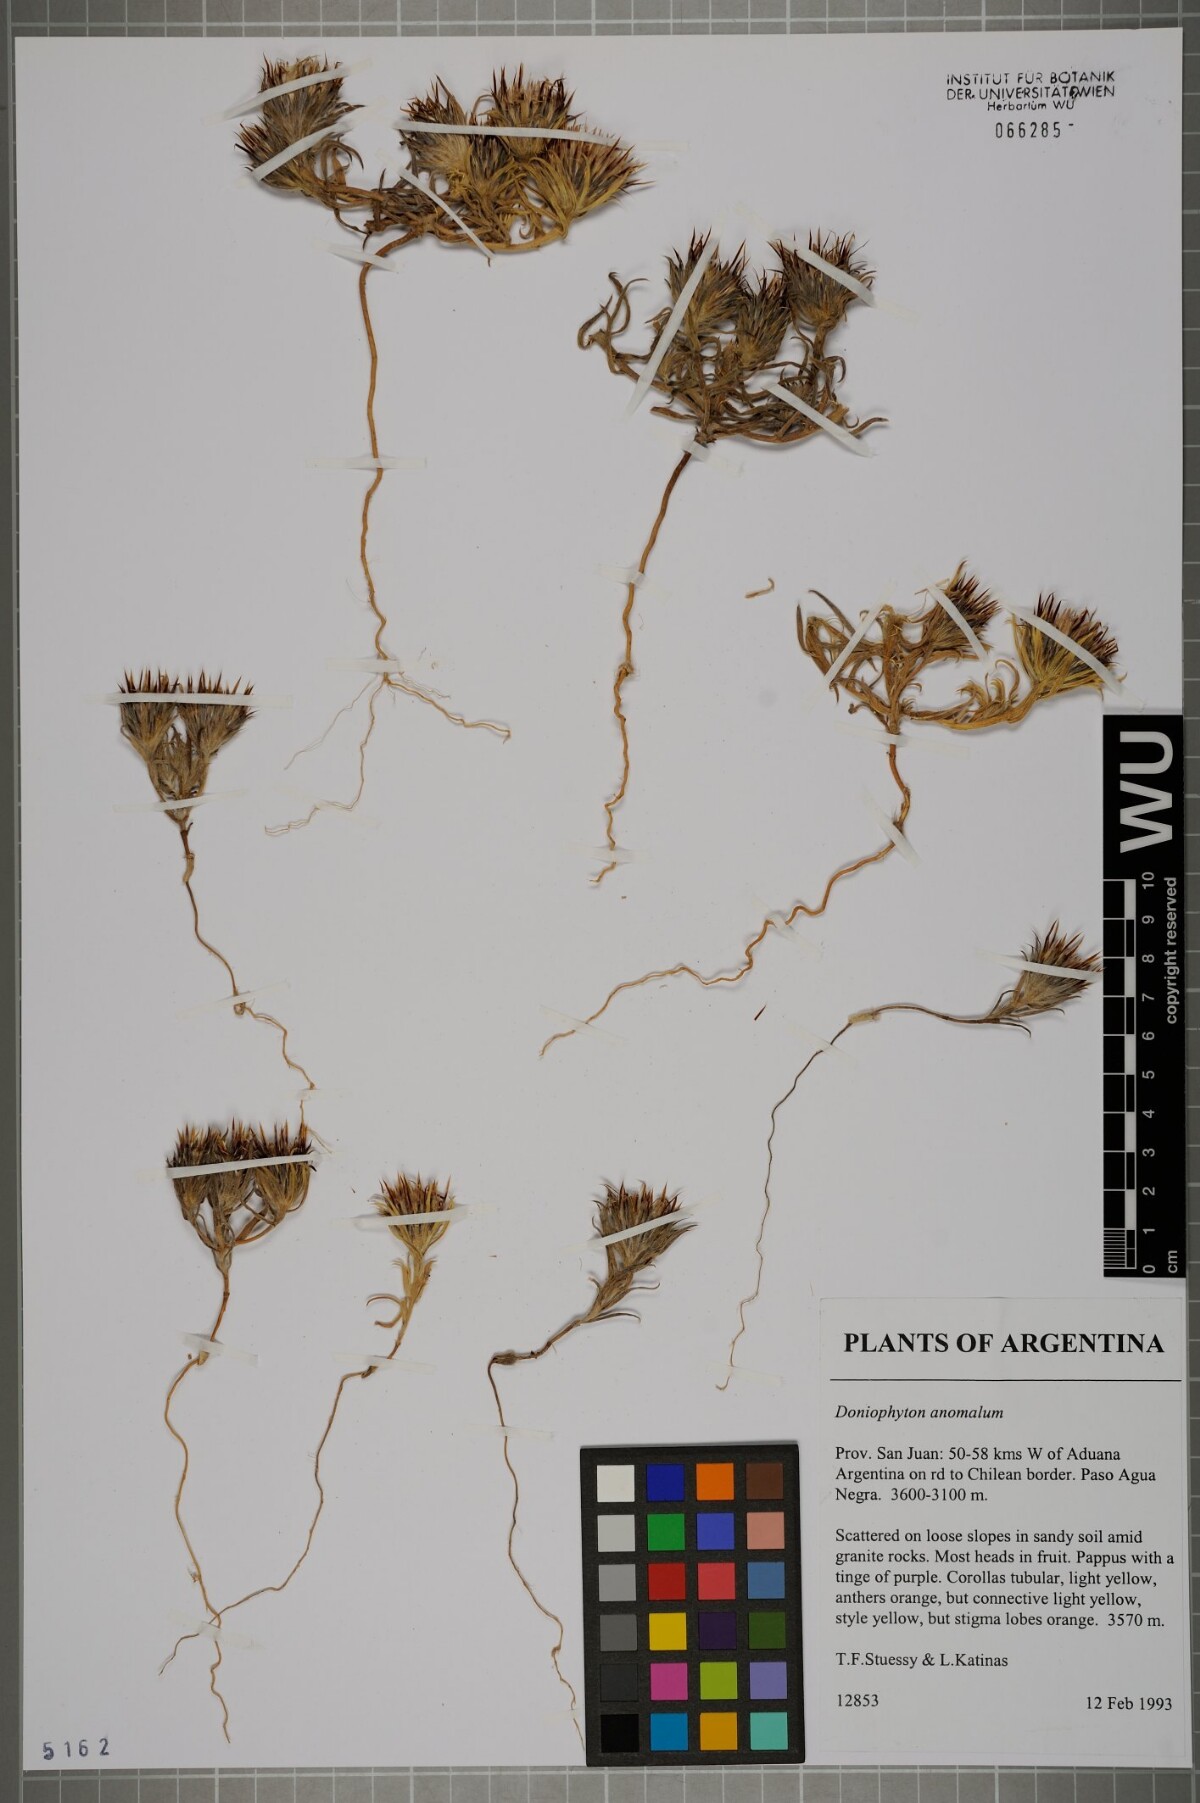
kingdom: Plantae
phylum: Tracheophyta
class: Magnoliopsida
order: Asterales
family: Asteraceae
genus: Doniophyton
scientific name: Doniophyton weddellii
